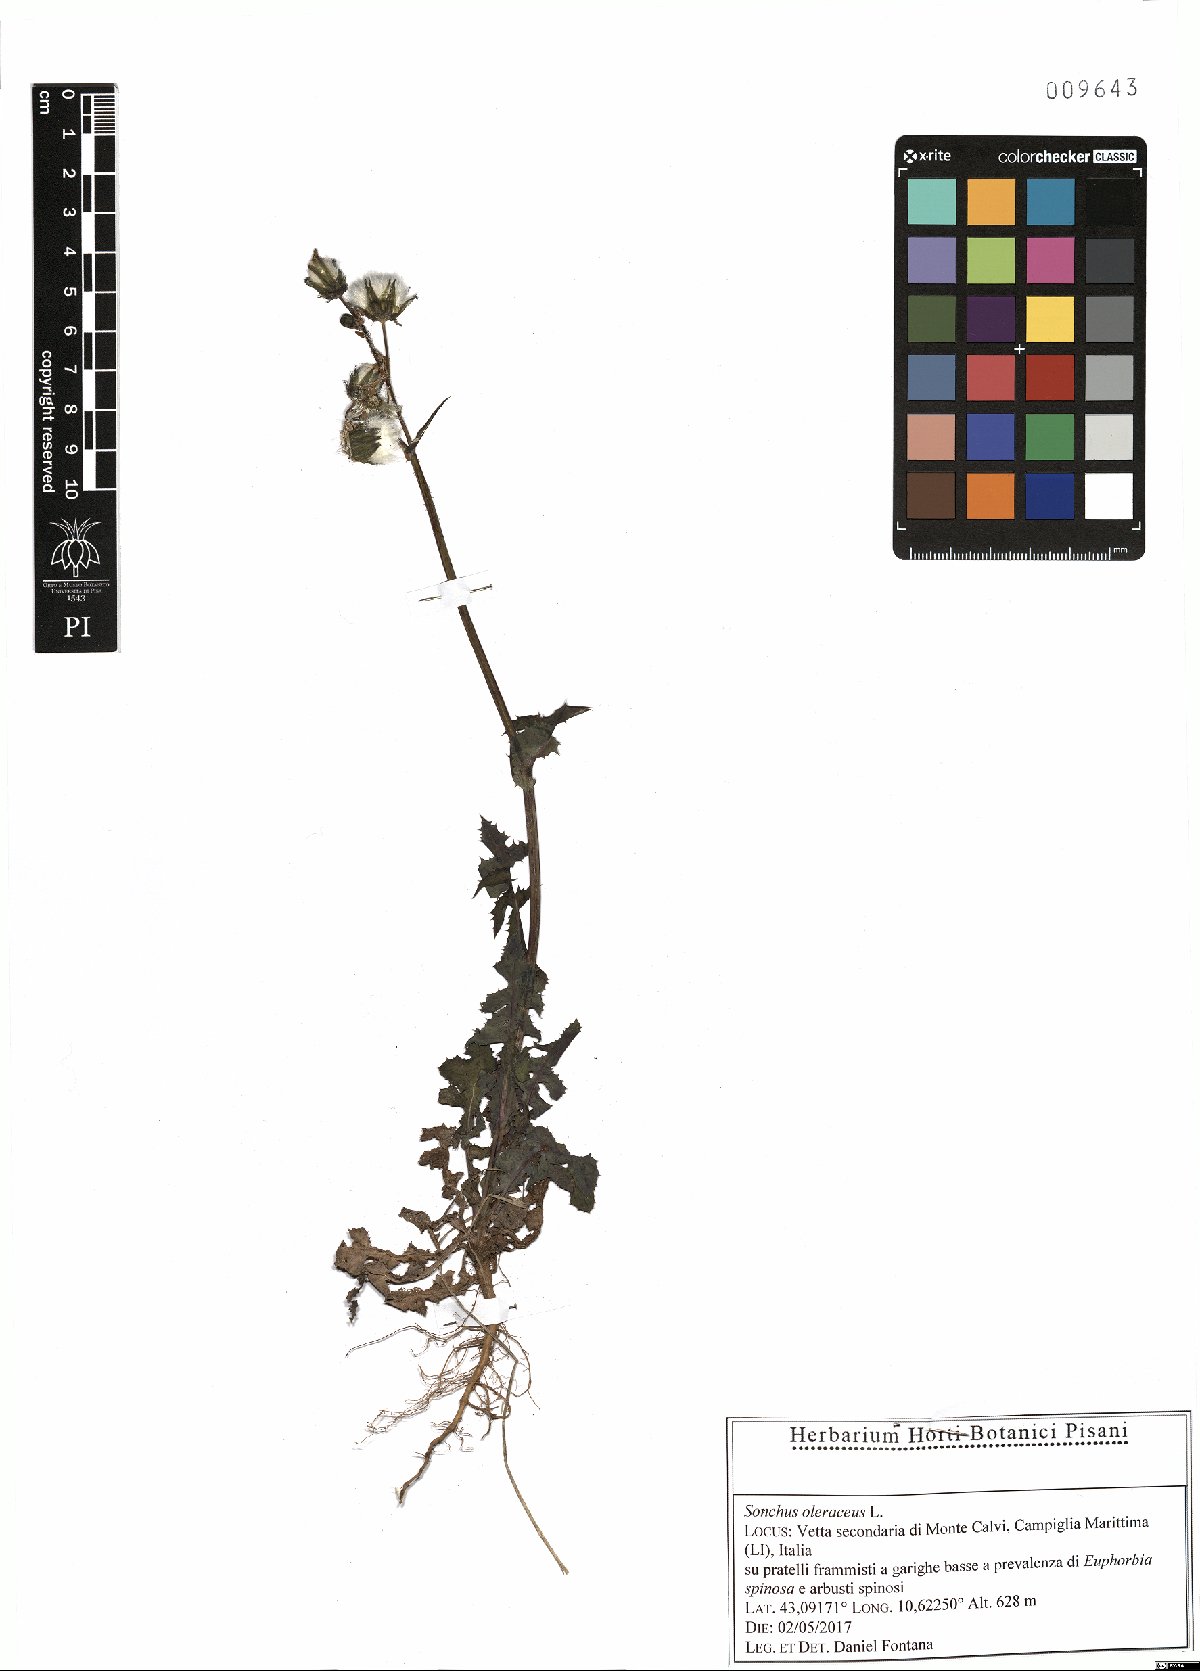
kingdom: Plantae
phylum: Tracheophyta
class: Magnoliopsida
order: Asterales
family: Asteraceae
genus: Sonchus
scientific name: Sonchus oleraceus
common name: Common sowthistle
